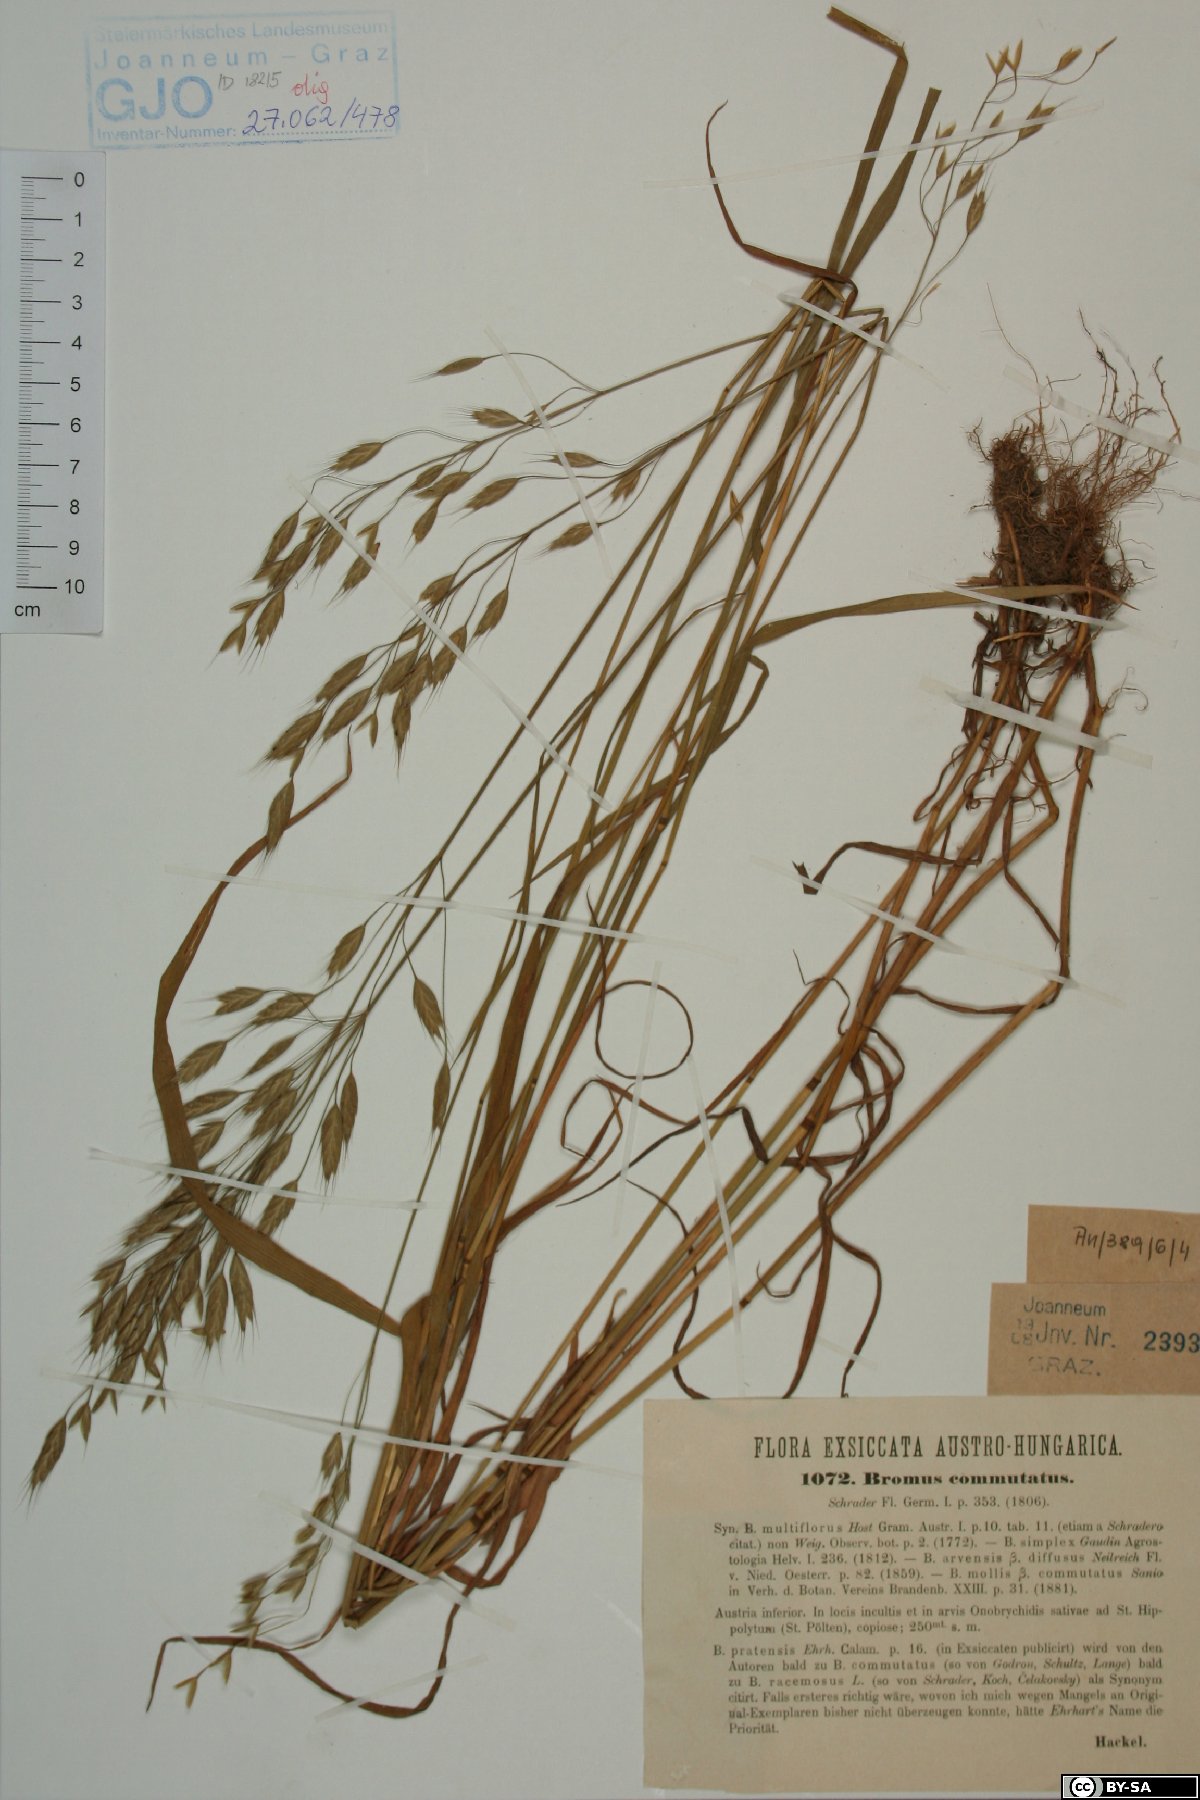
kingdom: Plantae
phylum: Tracheophyta
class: Liliopsida
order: Poales
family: Poaceae
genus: Bromus
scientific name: Bromus commutatus
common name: Meadow brome
